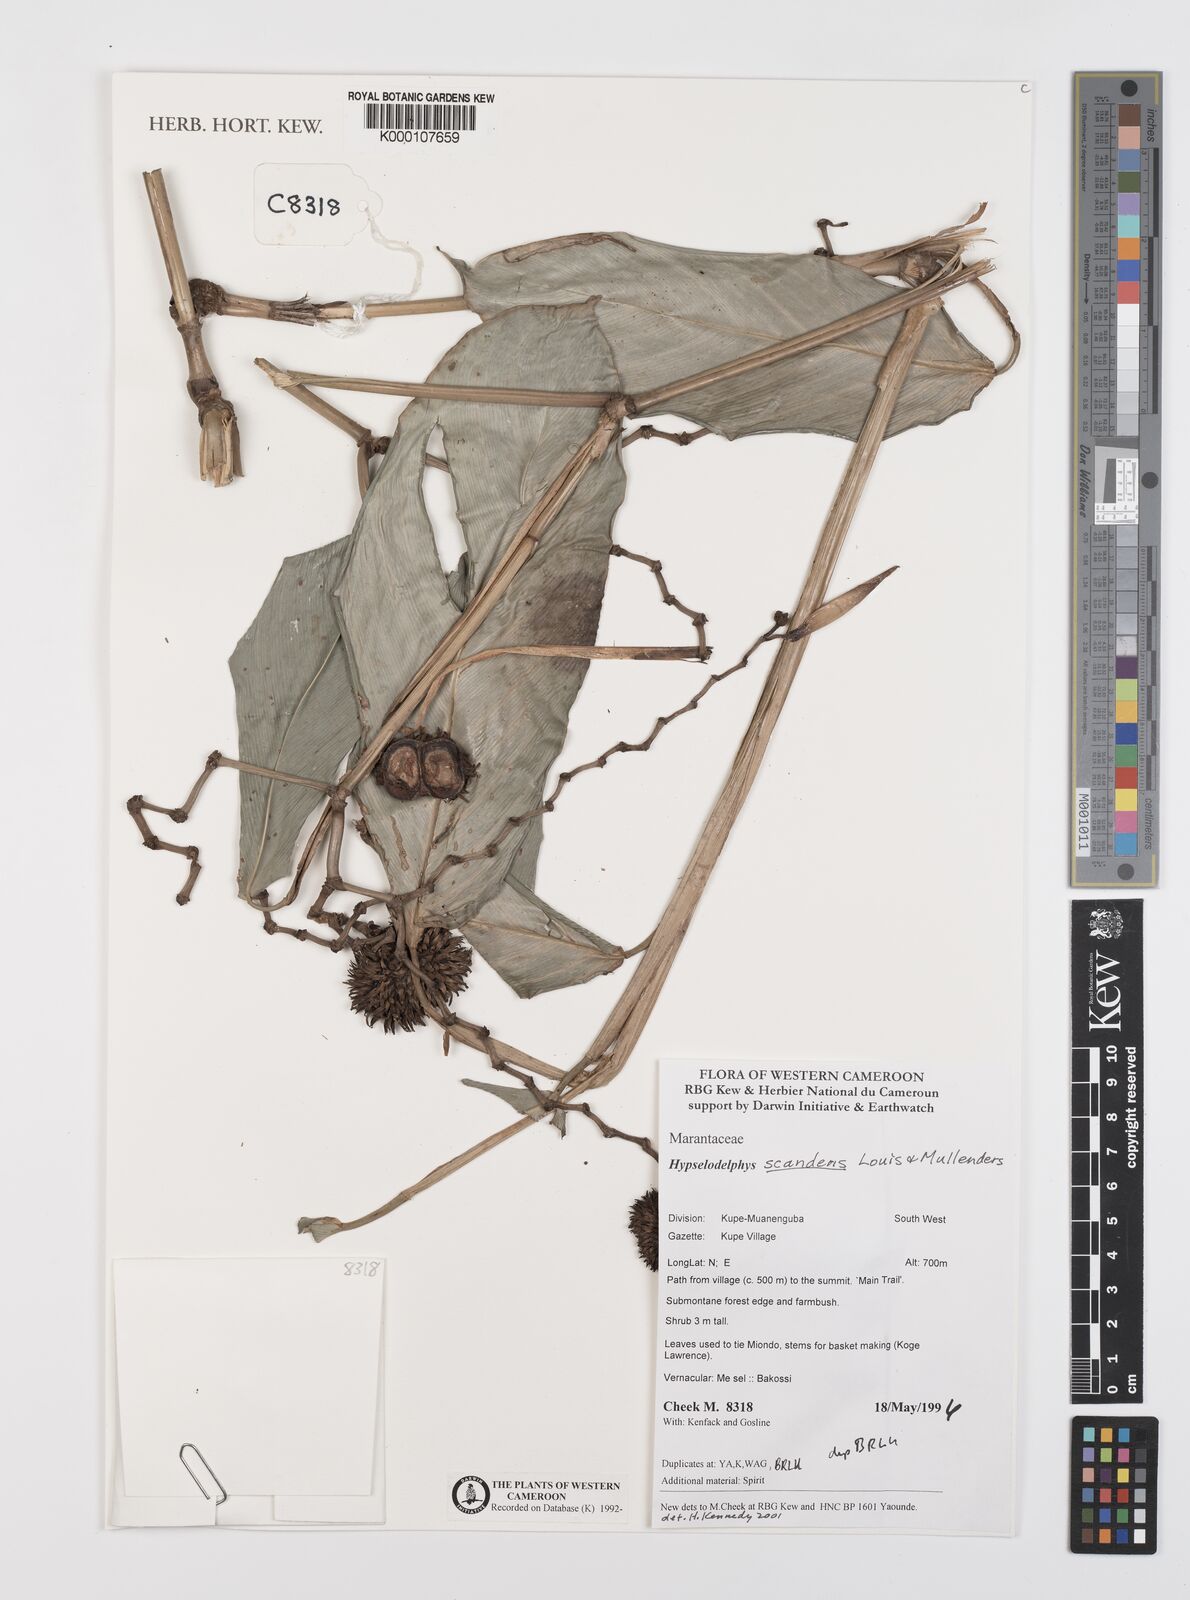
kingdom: Plantae
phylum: Tracheophyta
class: Liliopsida
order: Zingiberales
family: Marantaceae
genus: Hypselodelphys
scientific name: Hypselodelphys scandens
